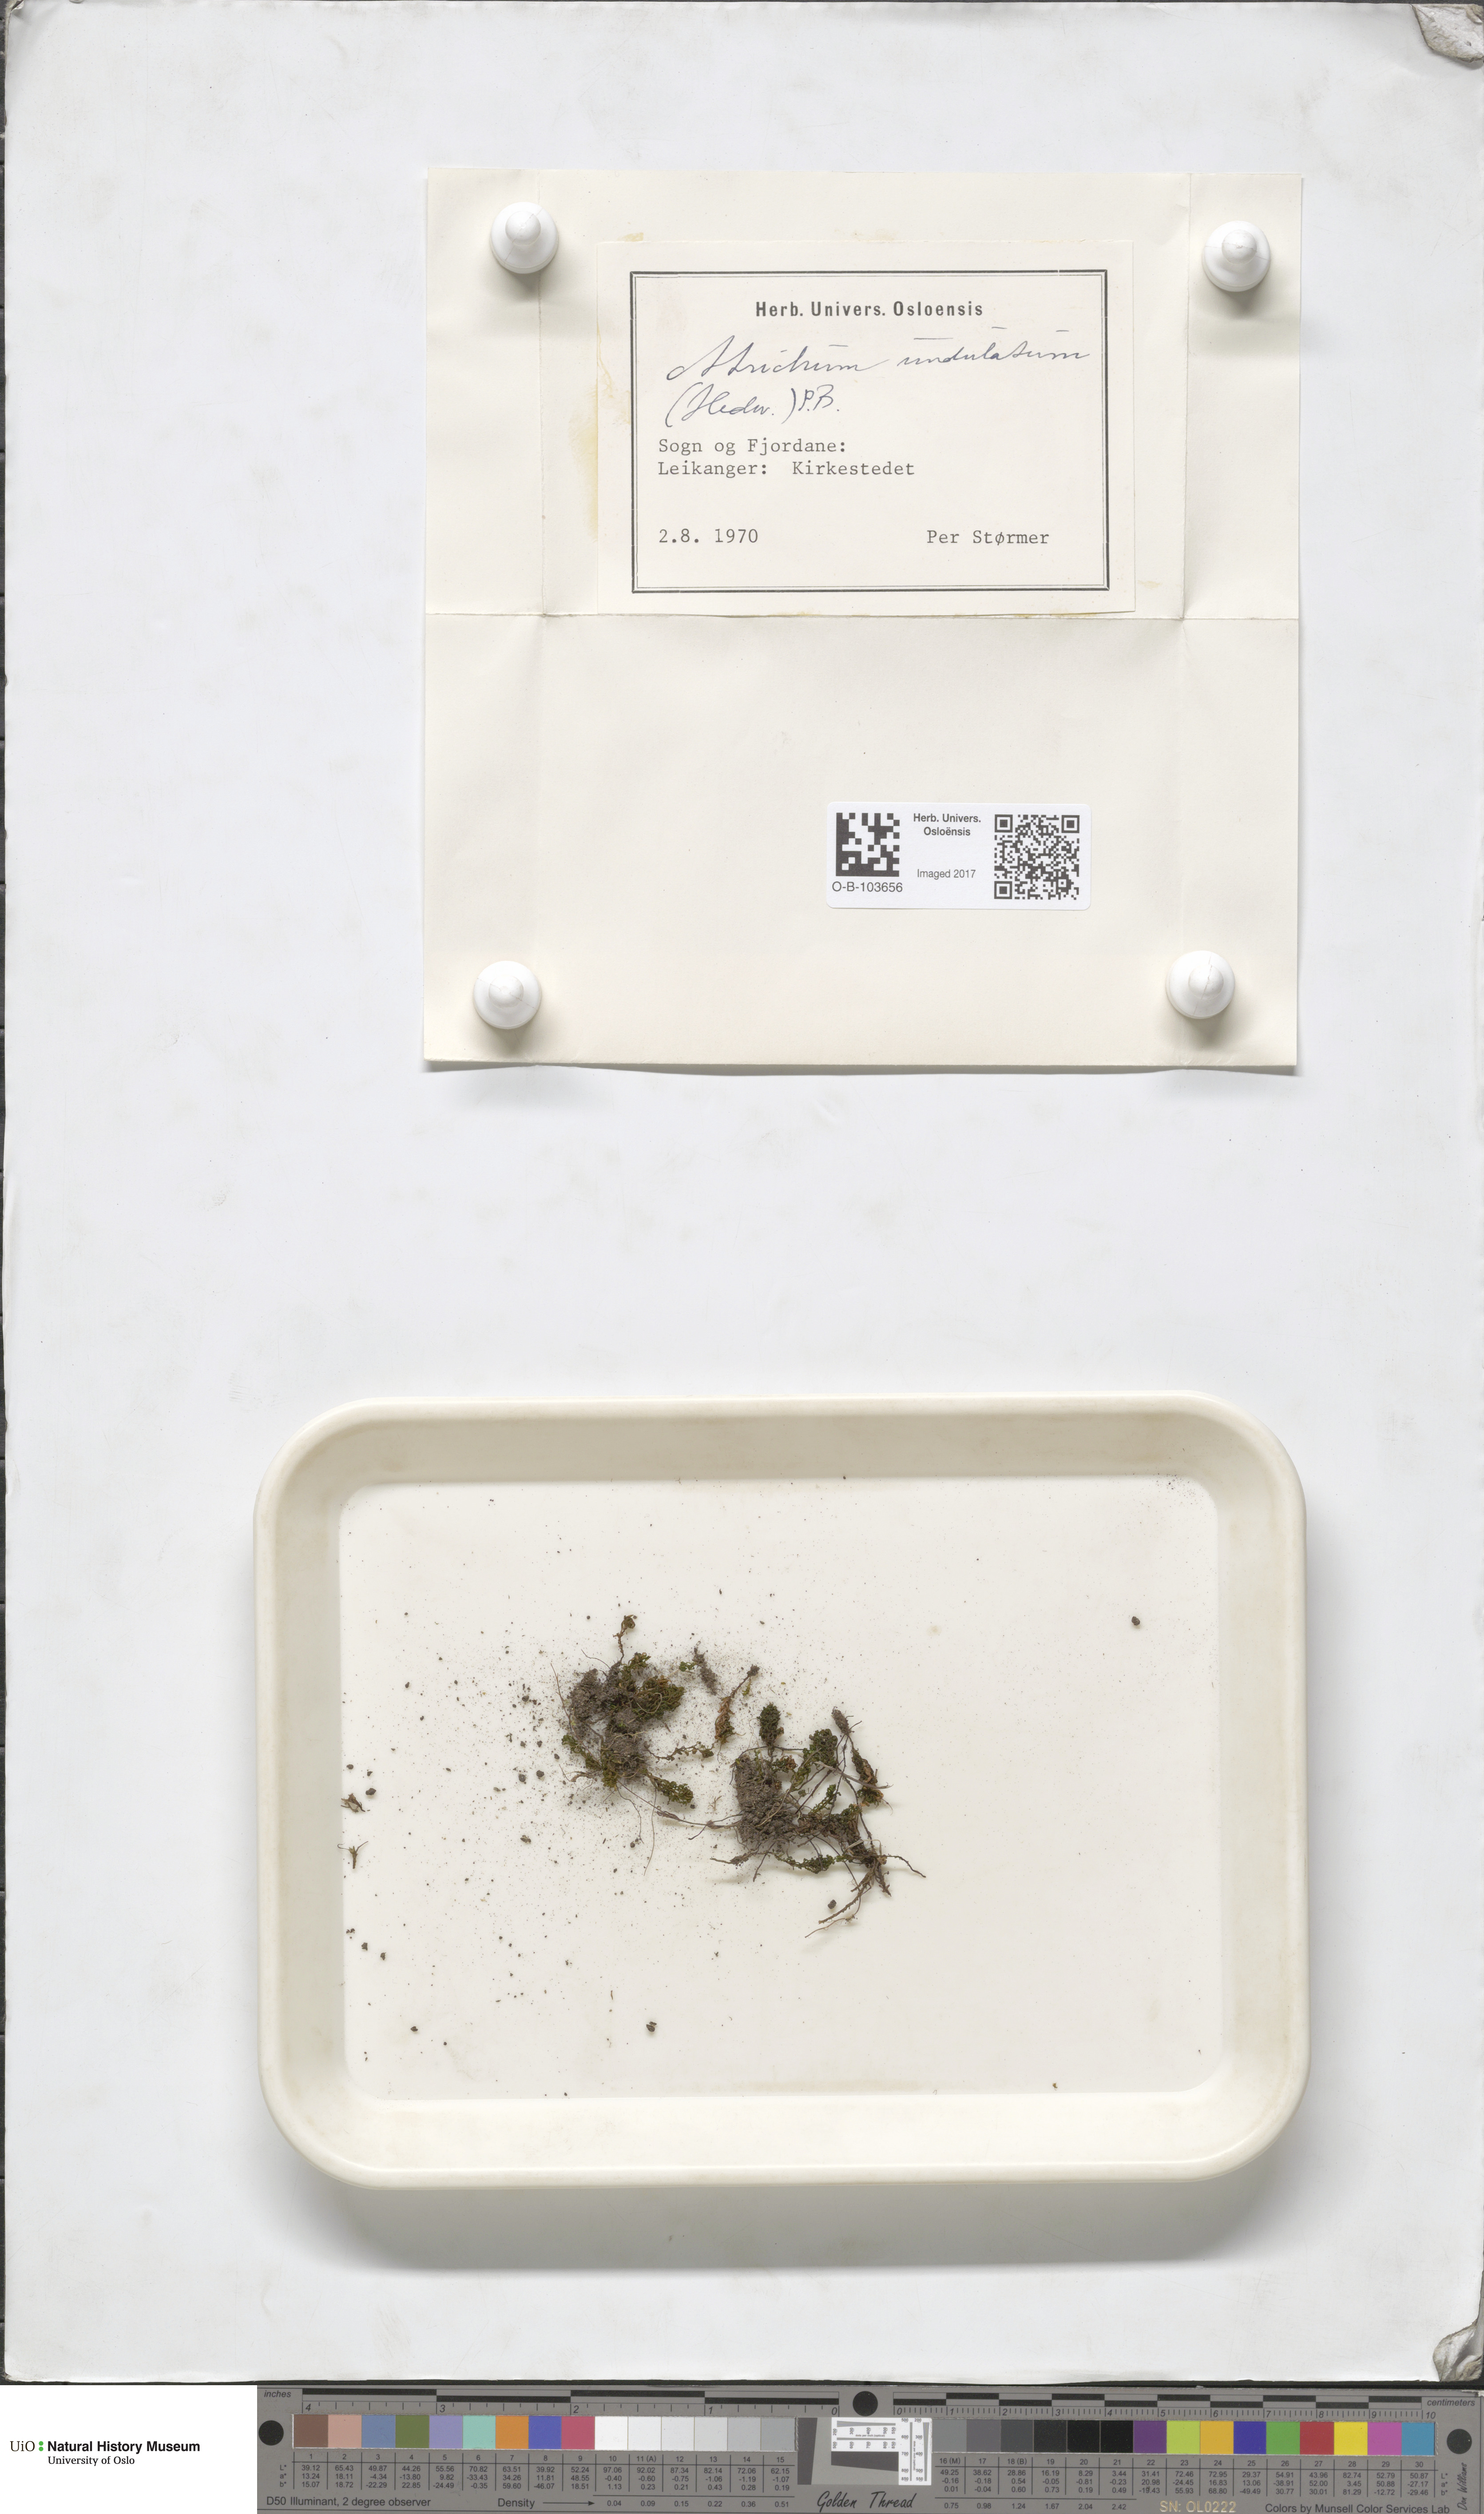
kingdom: Plantae
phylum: Bryophyta
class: Polytrichopsida
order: Polytrichales
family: Polytrichaceae
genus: Atrichum
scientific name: Atrichum undulatum
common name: Common smoothcap
